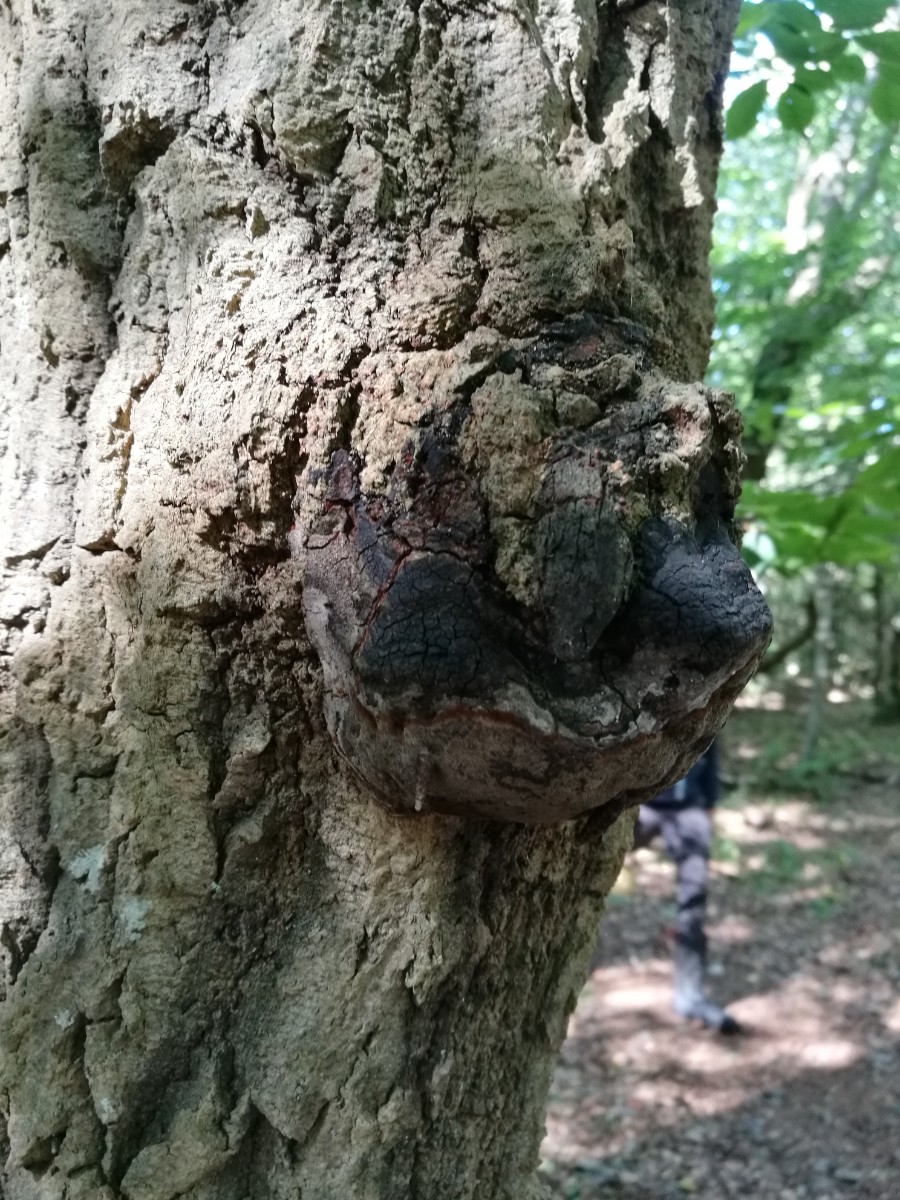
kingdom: Fungi
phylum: Basidiomycota
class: Agaricomycetes
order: Hymenochaetales
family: Hymenochaetaceae
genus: Phellinus
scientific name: Phellinus tremulae
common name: aspe-ildporesvamp
